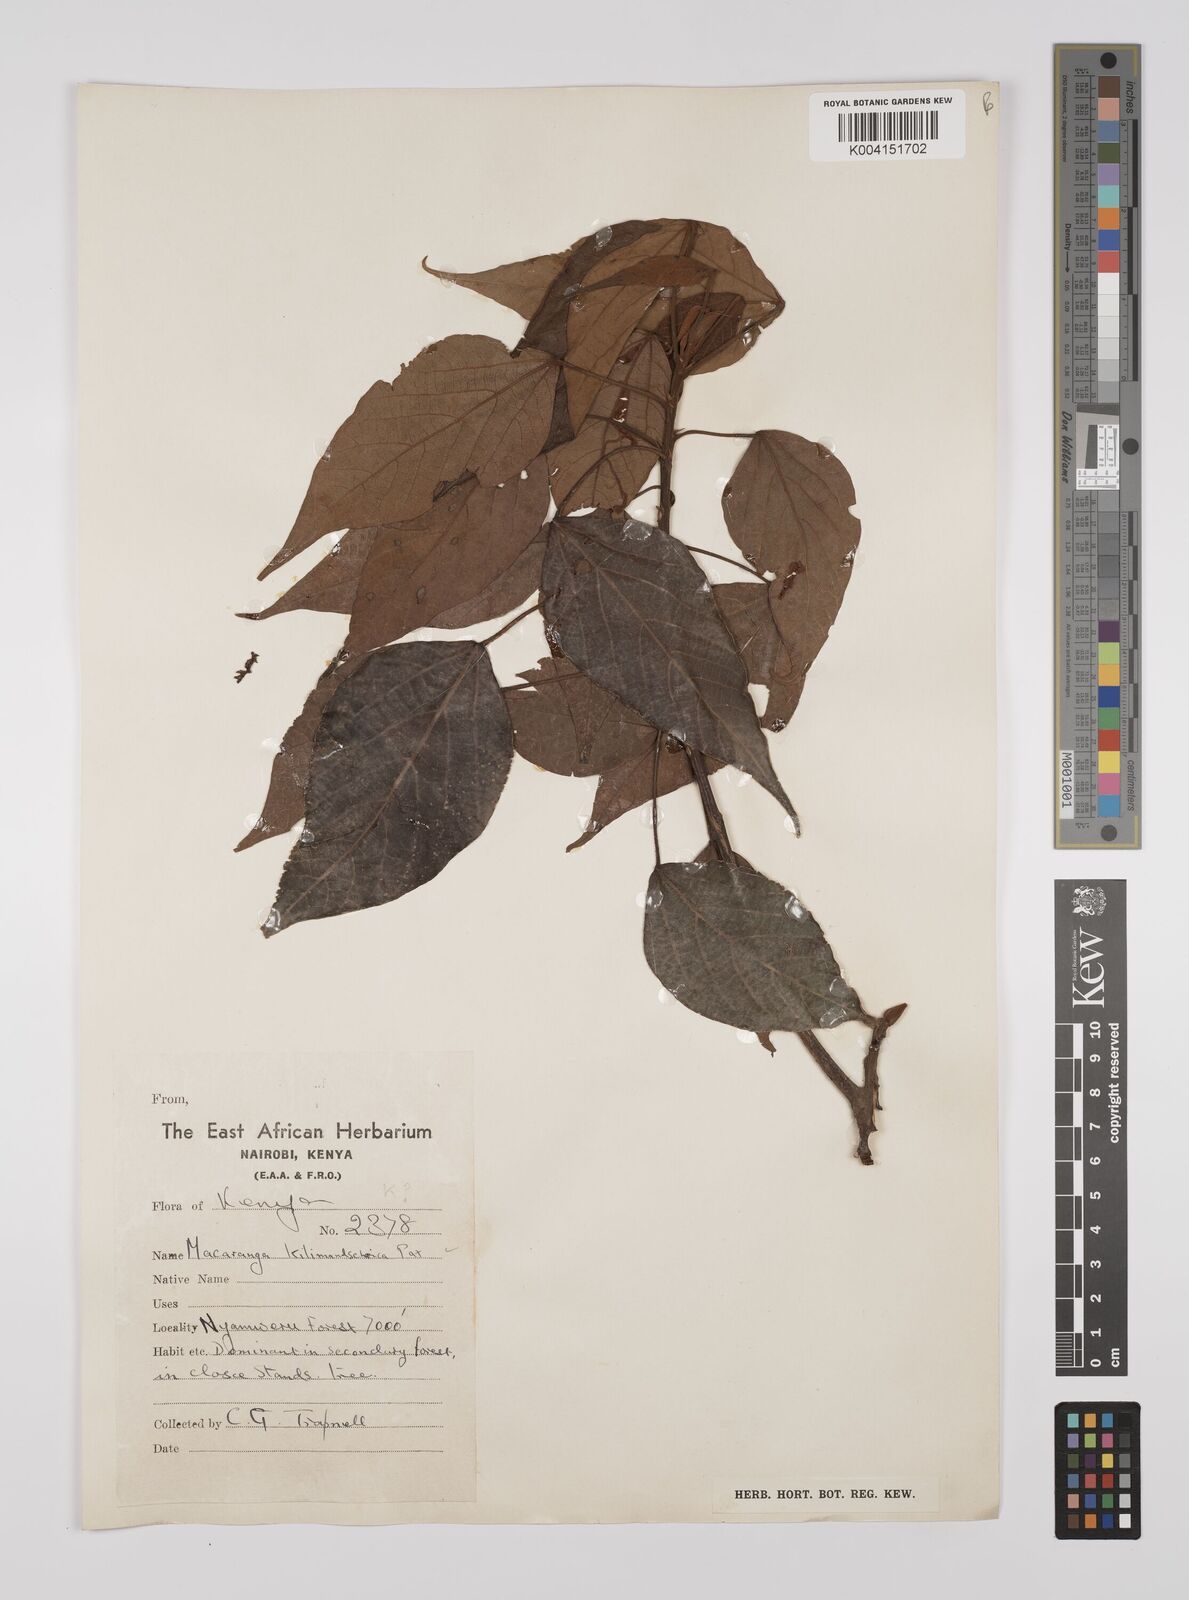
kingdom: Plantae
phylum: Tracheophyta
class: Magnoliopsida
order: Malpighiales
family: Euphorbiaceae
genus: Macaranga
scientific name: Macaranga kilimandscharica
